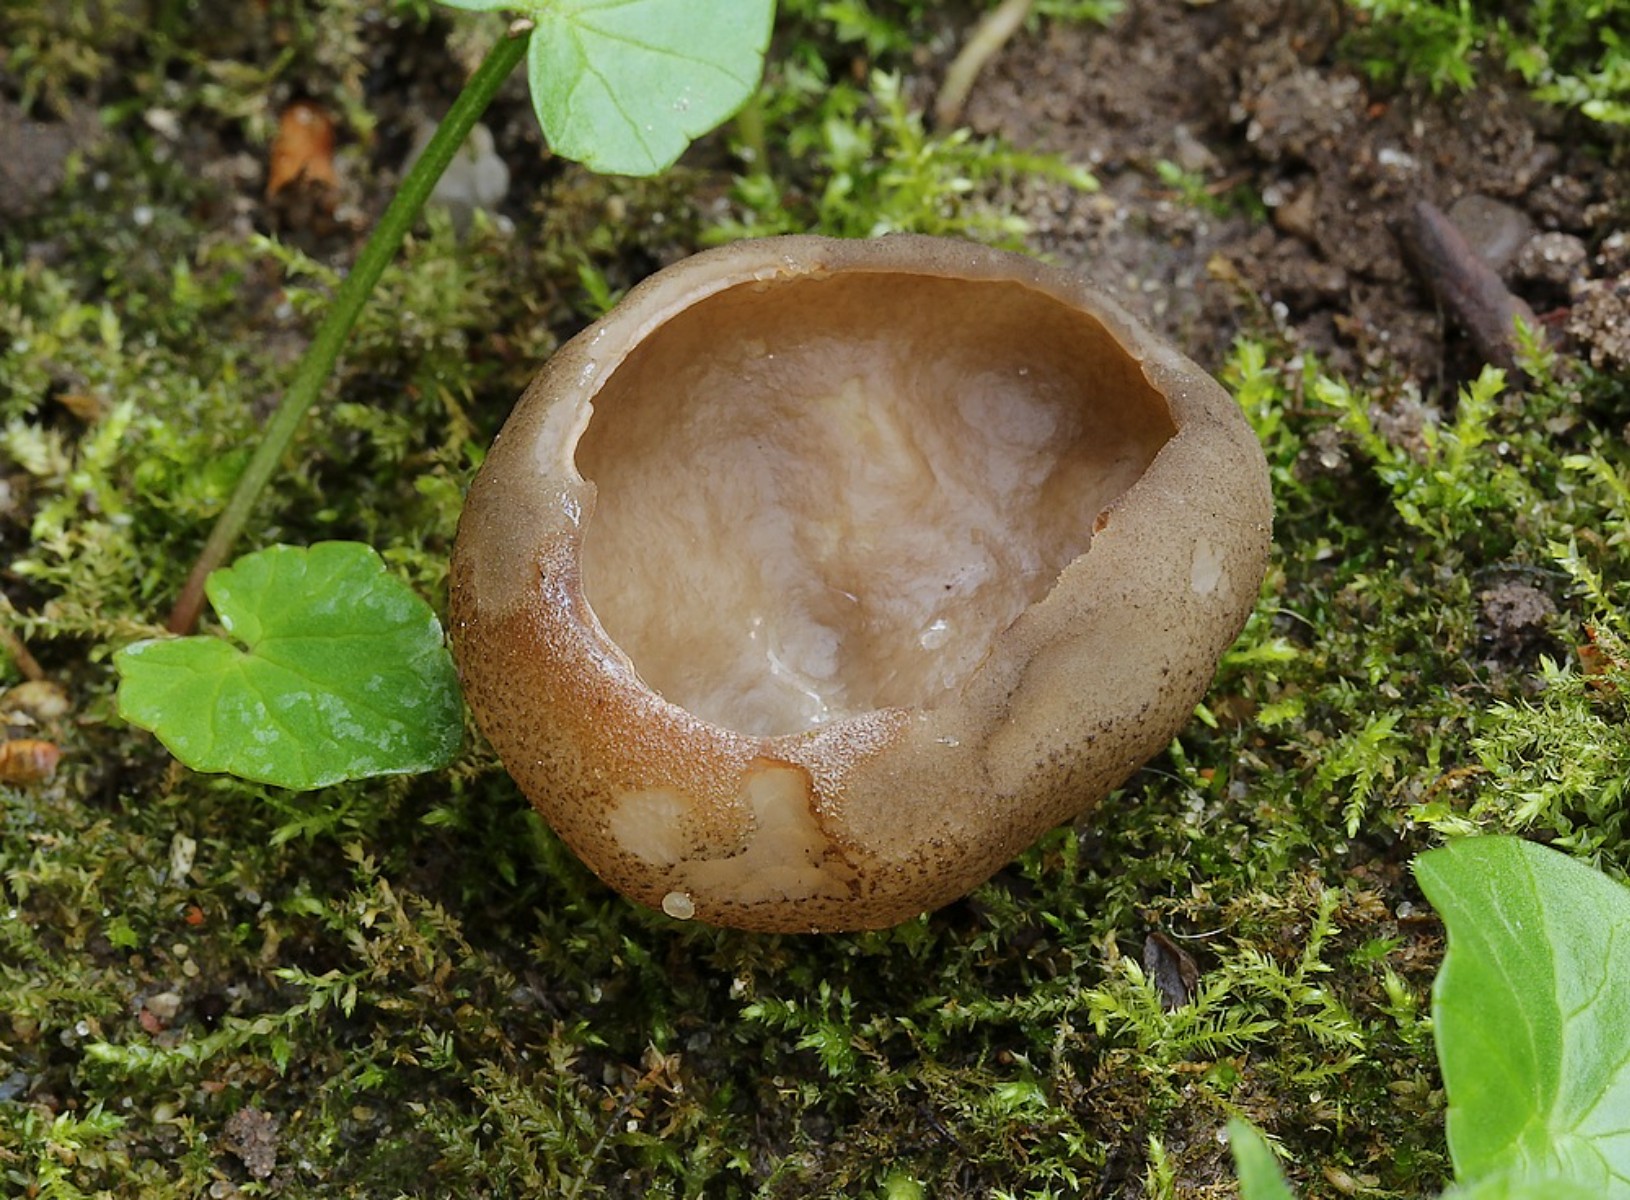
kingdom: Fungi
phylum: Ascomycota
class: Pezizomycetes
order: Pezizales
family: Morchellaceae
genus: Disciotis
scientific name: Disciotis venosa
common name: klor-bægermorkel
